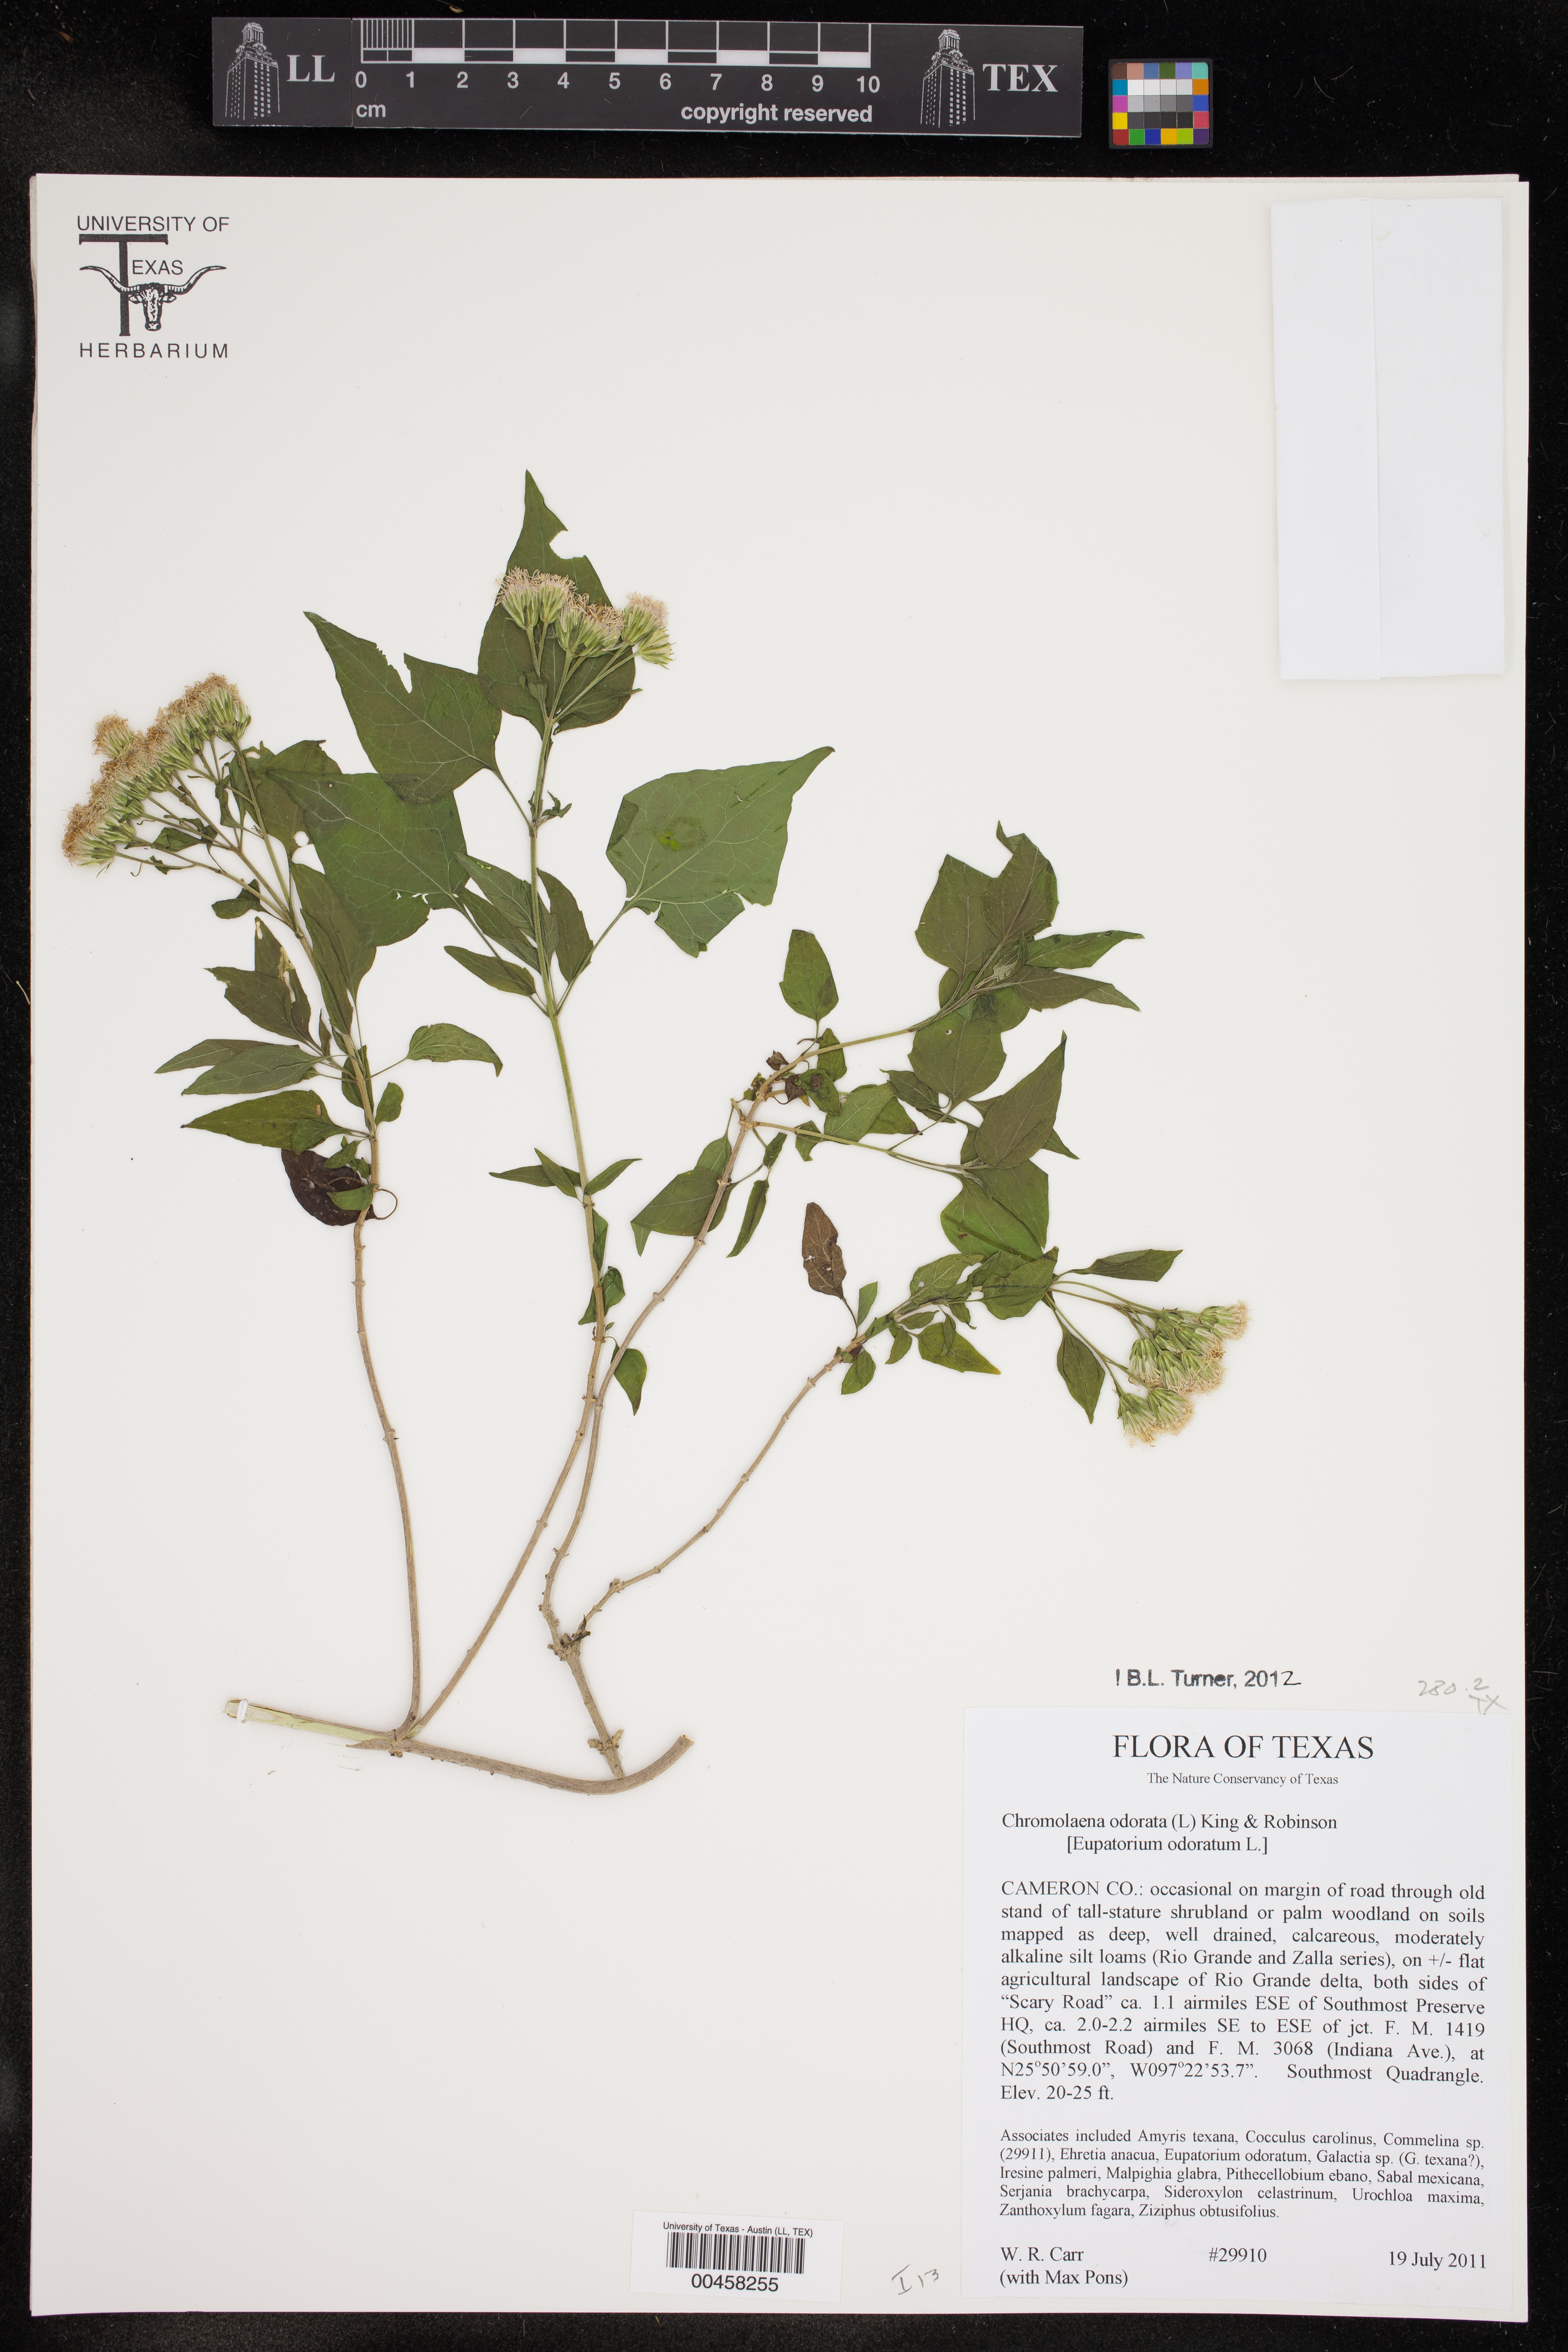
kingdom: Plantae
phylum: Tracheophyta
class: Magnoliopsida
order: Asterales
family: Asteraceae
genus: Chromolaena
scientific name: Chromolaena odorata
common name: Siamweed
